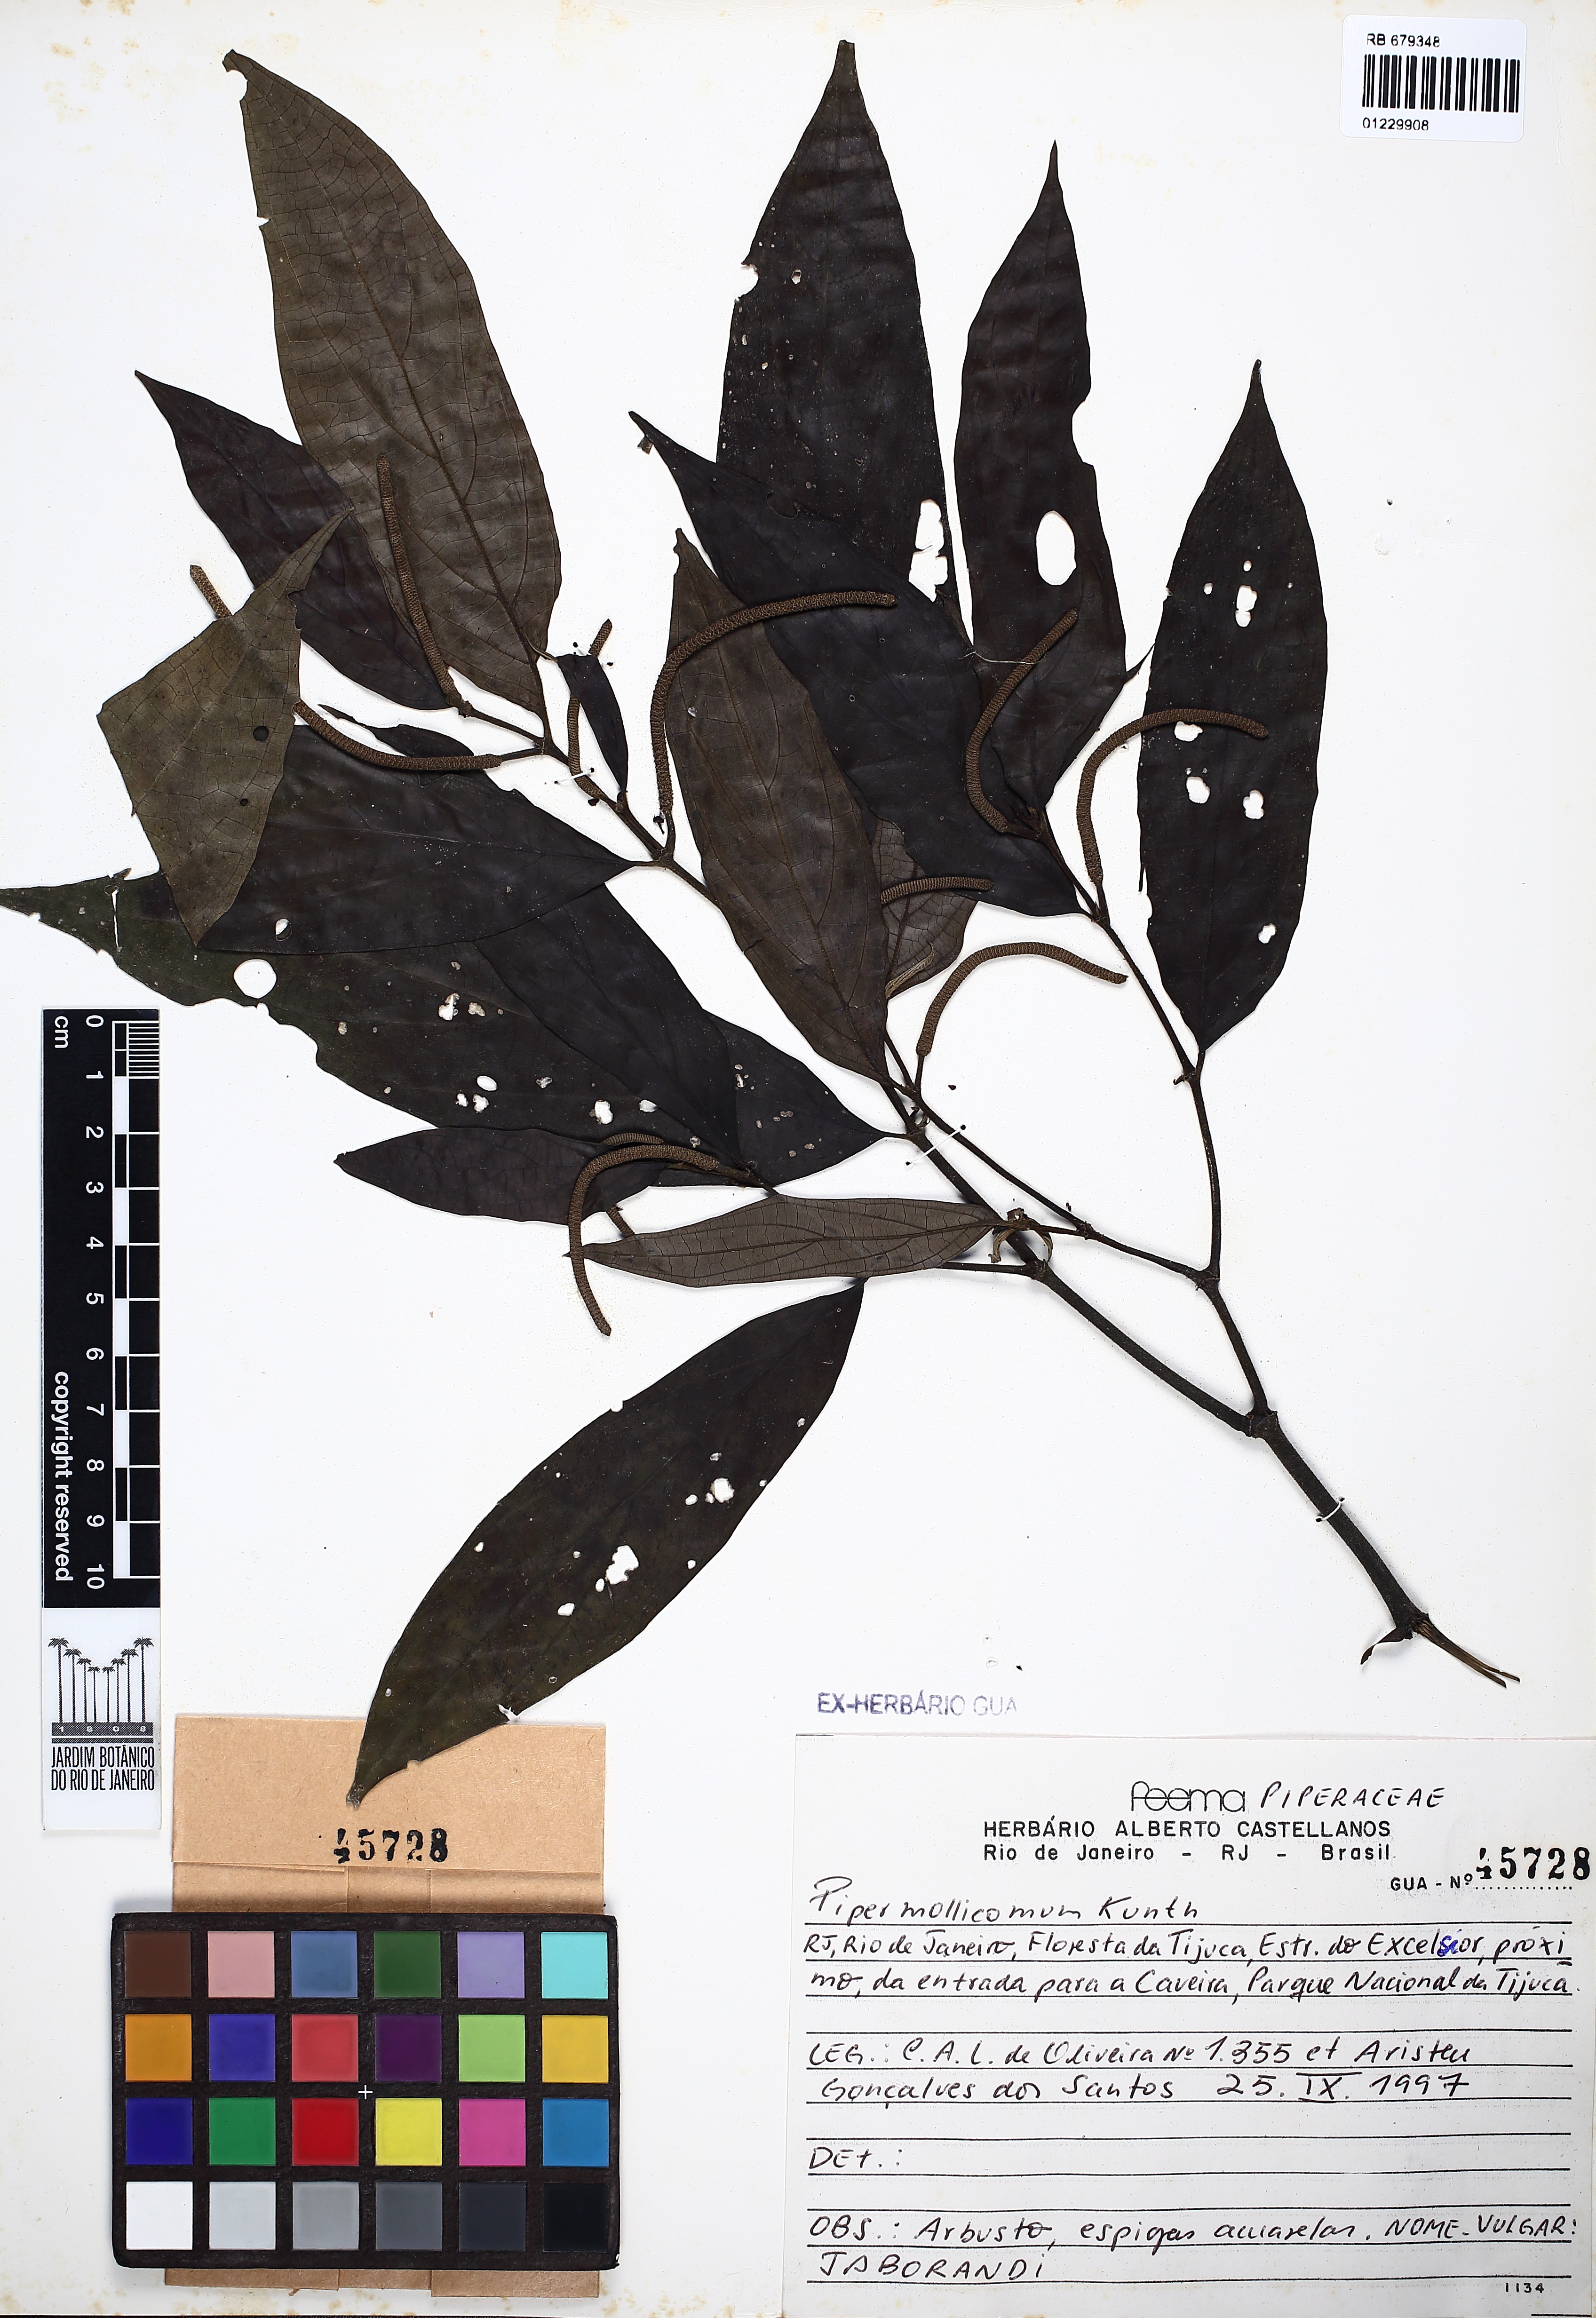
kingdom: Plantae
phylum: Tracheophyta
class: Magnoliopsida
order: Piperales
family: Piperaceae
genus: Piper
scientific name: Piper mollicomum
